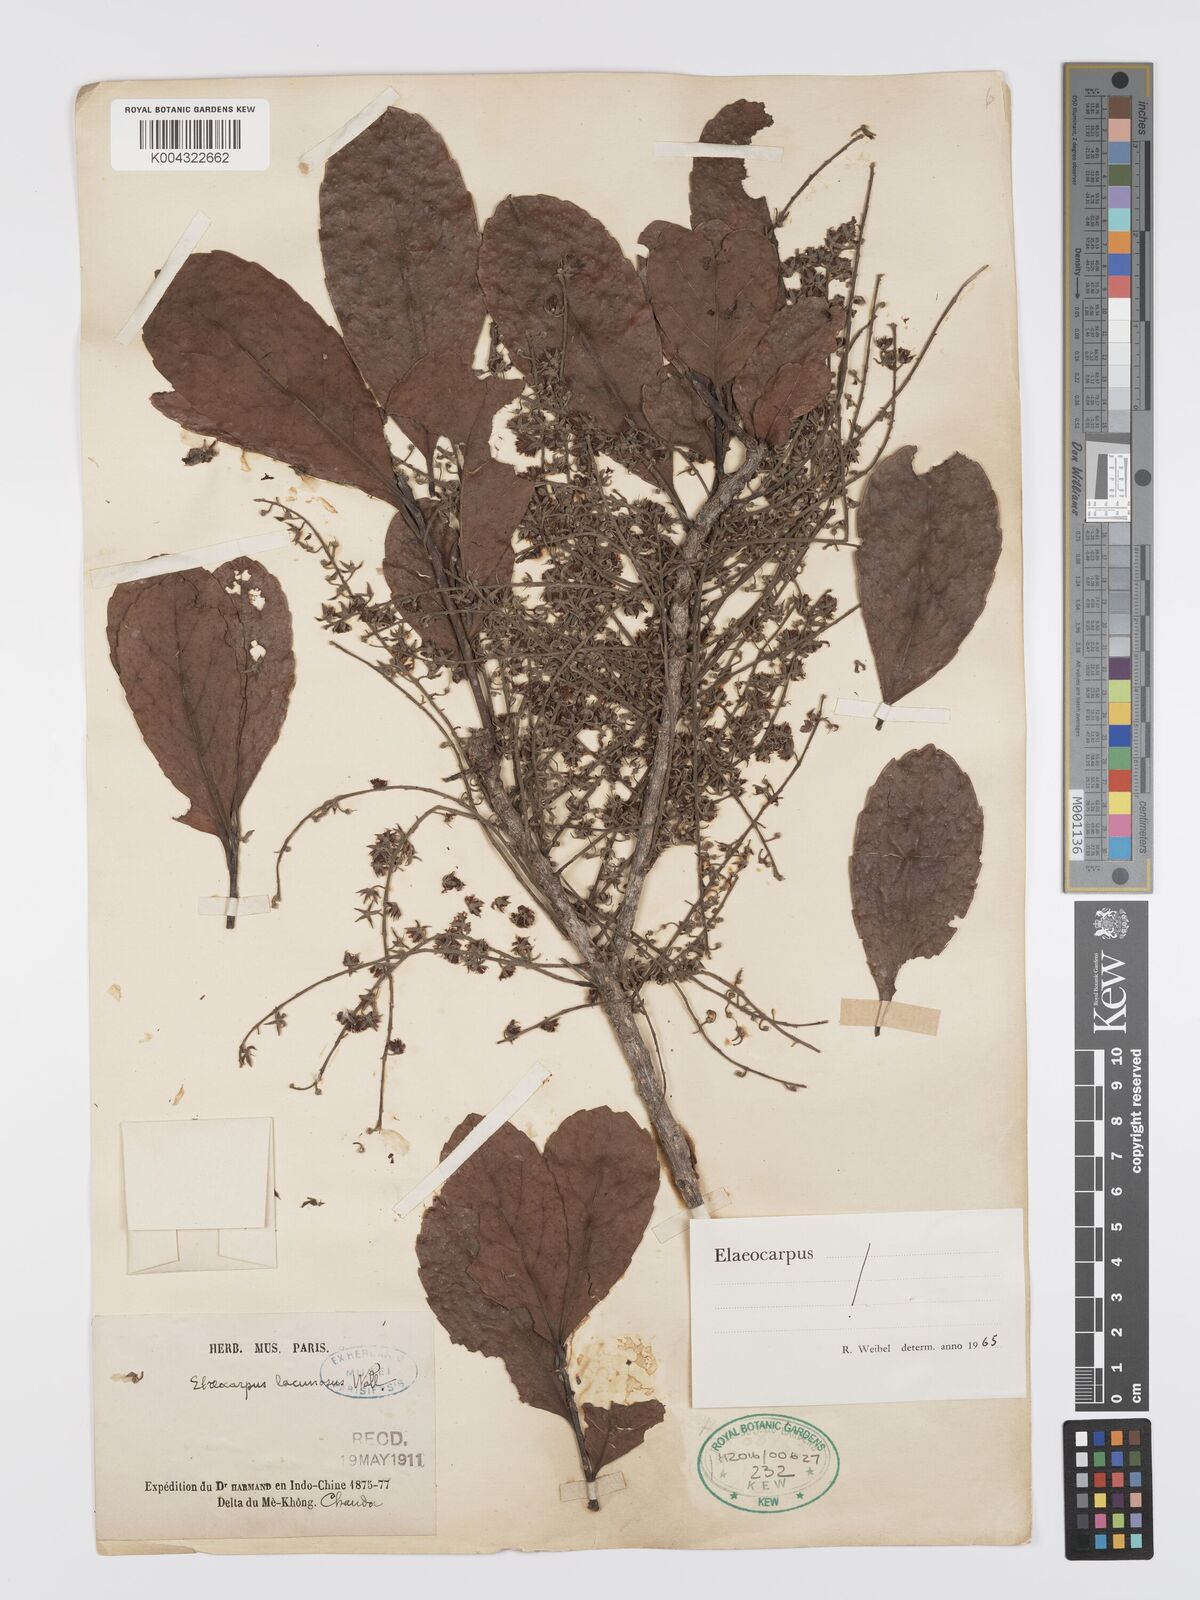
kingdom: Plantae
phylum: Tracheophyta
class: Magnoliopsida
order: Oxalidales
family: Elaeocarpaceae
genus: Elaeocarpus
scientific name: Elaeocarpus lanceifolius
